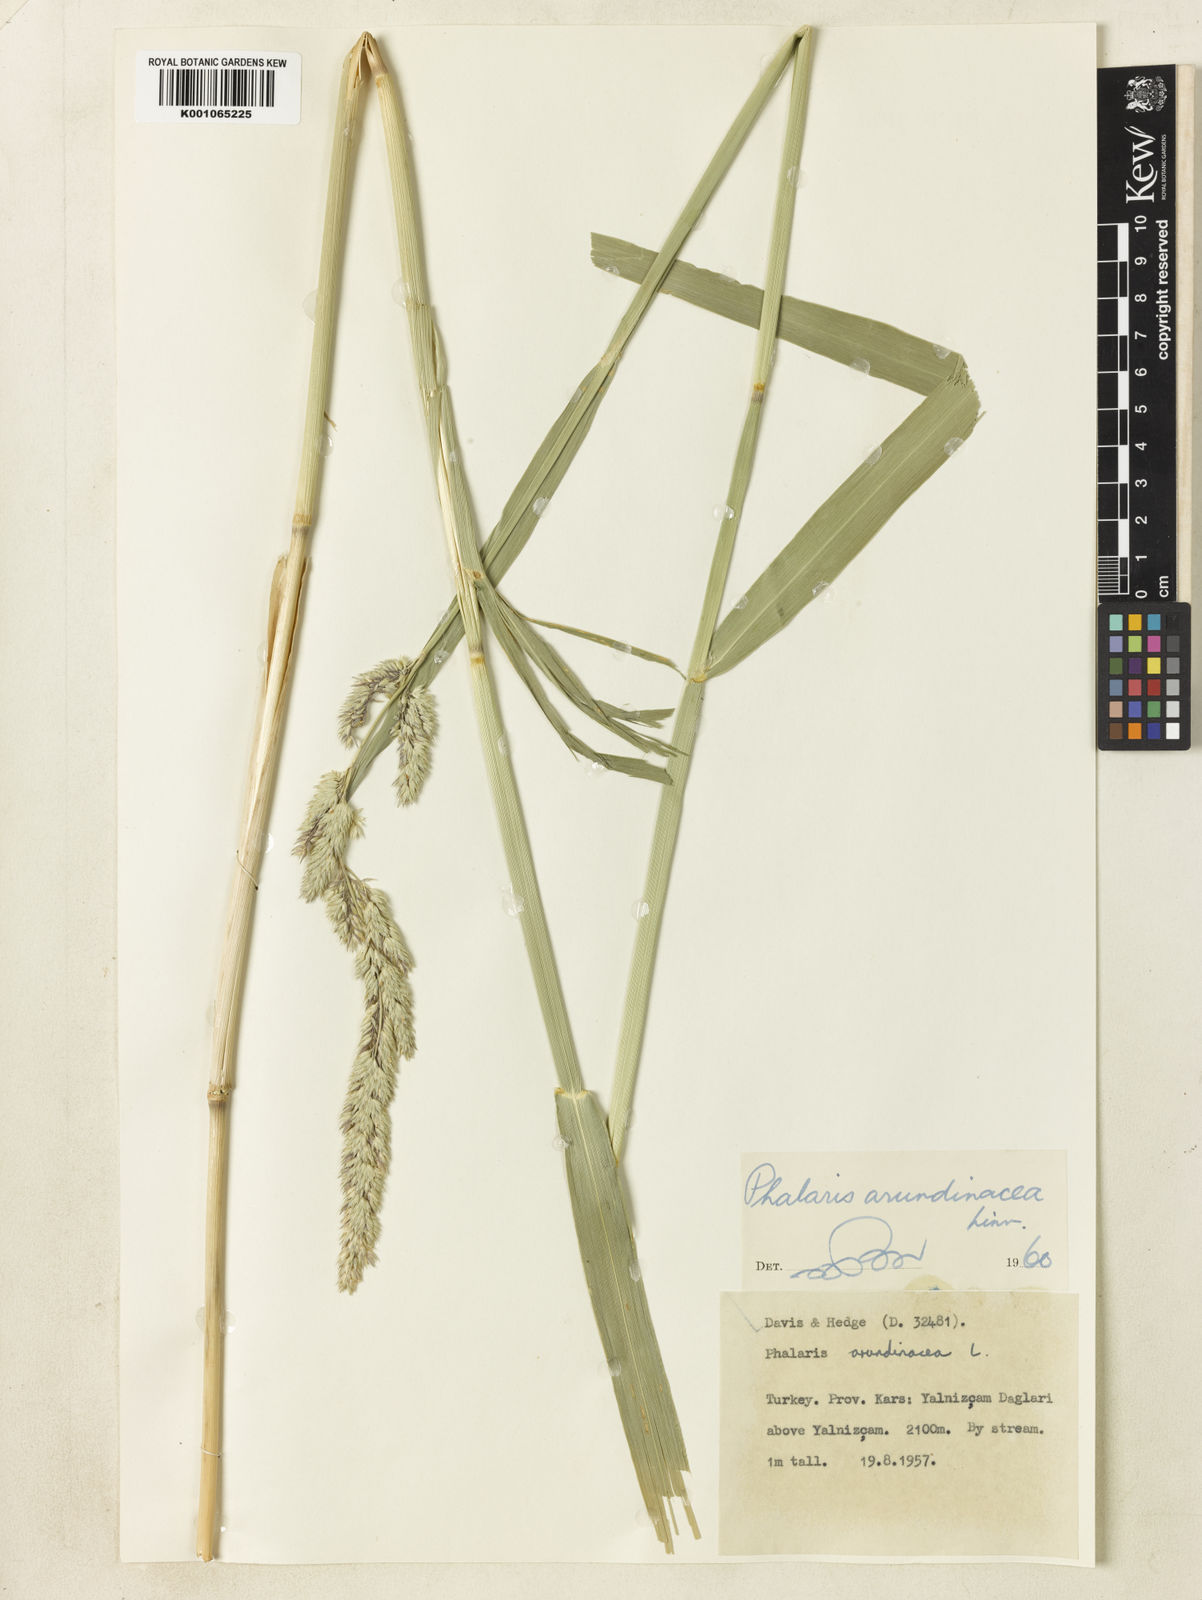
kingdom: Plantae
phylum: Tracheophyta
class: Liliopsida
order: Poales
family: Poaceae
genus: Phalaris
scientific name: Phalaris arundinacea
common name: Reed canary-grass
